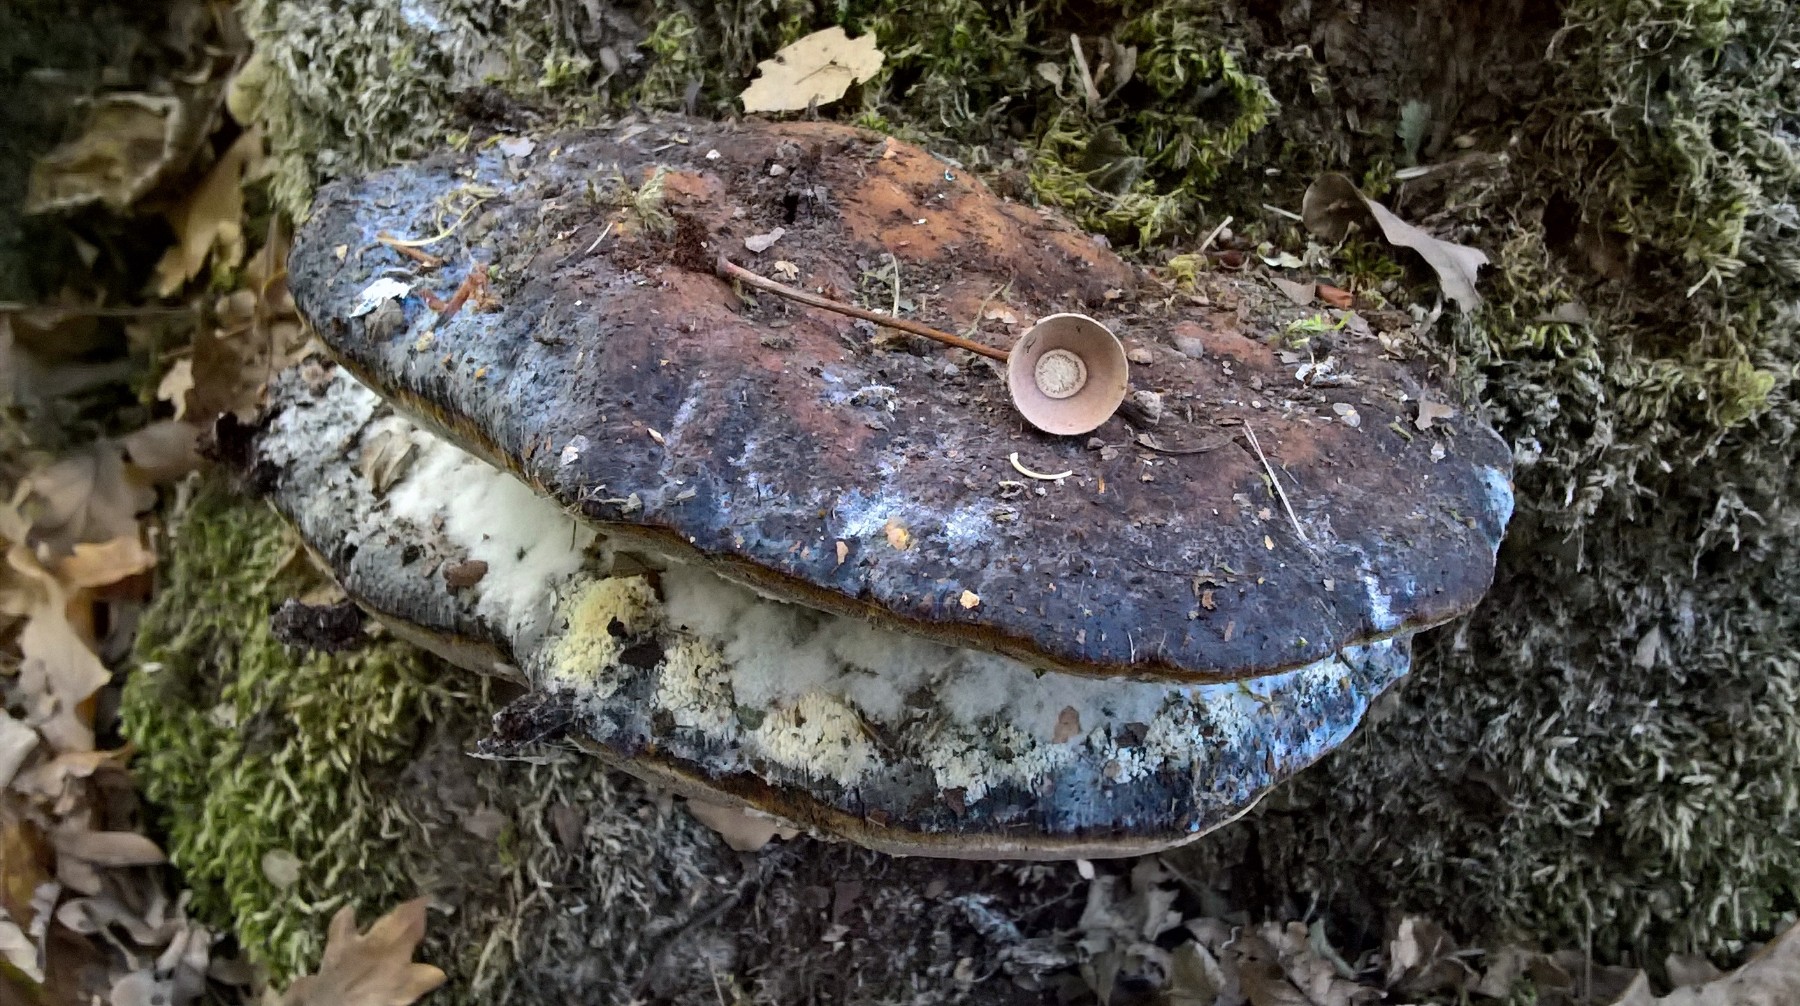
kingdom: Fungi
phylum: Basidiomycota
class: Agaricomycetes
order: Hymenochaetales
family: Hymenochaetaceae
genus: Pseudoinonotus
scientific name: Pseudoinonotus dryadeus
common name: ege-spejlporesvamp
